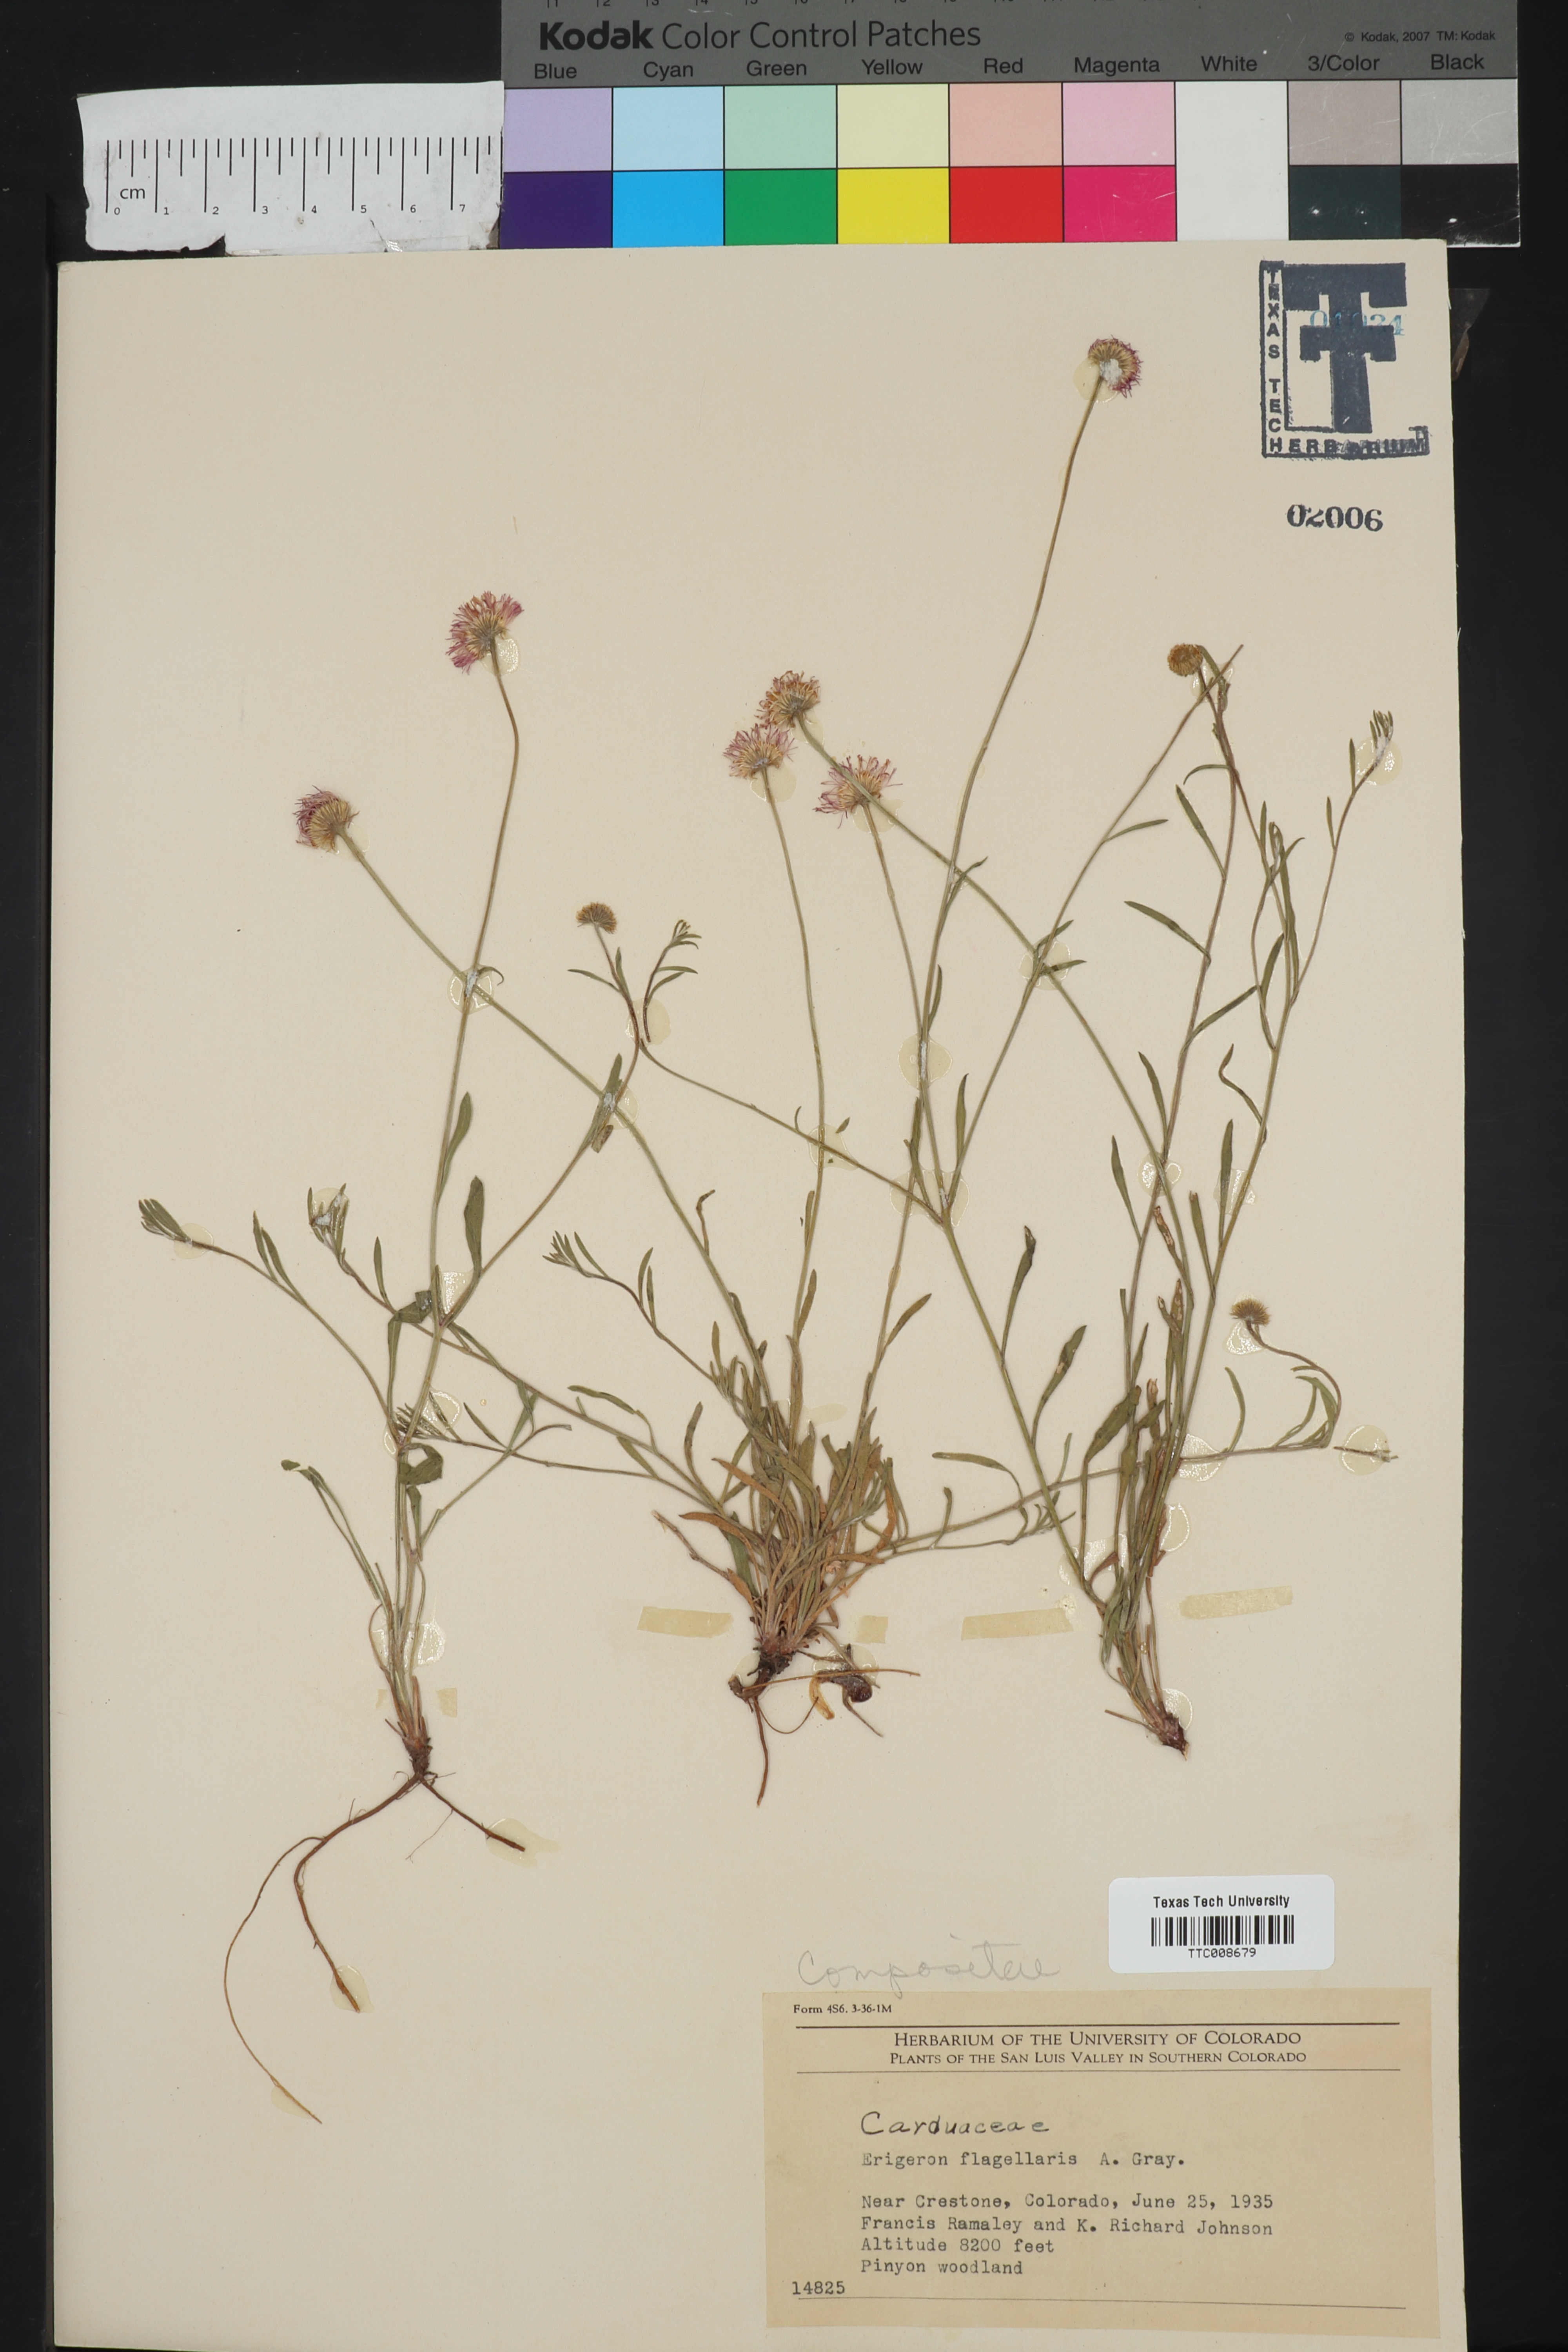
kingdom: Plantae
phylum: Tracheophyta
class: Magnoliopsida
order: Asterales
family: Asteraceae
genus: Erigeron
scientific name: Erigeron flagellaris
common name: Running fleabane
